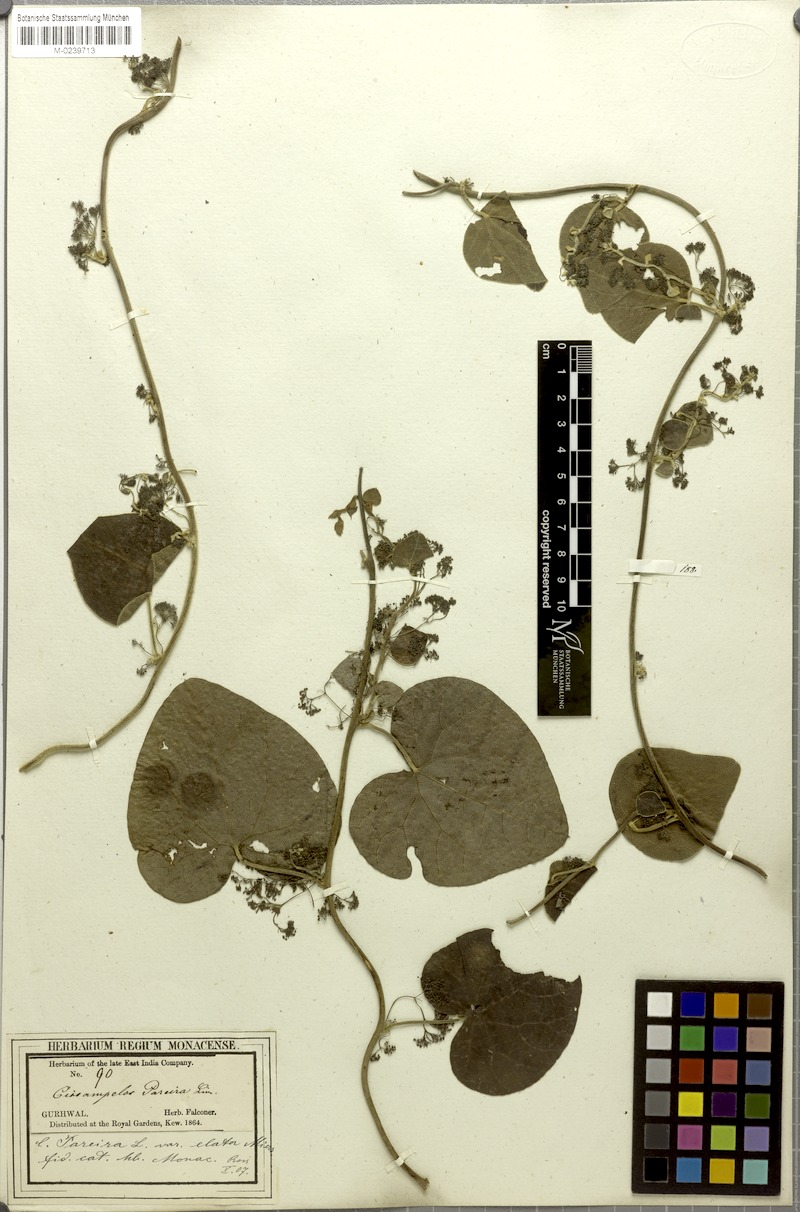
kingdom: Plantae
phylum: Tracheophyta
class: Magnoliopsida
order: Ranunculales
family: Menispermaceae
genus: Cissampelos
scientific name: Cissampelos pareira
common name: Velvetleaf
